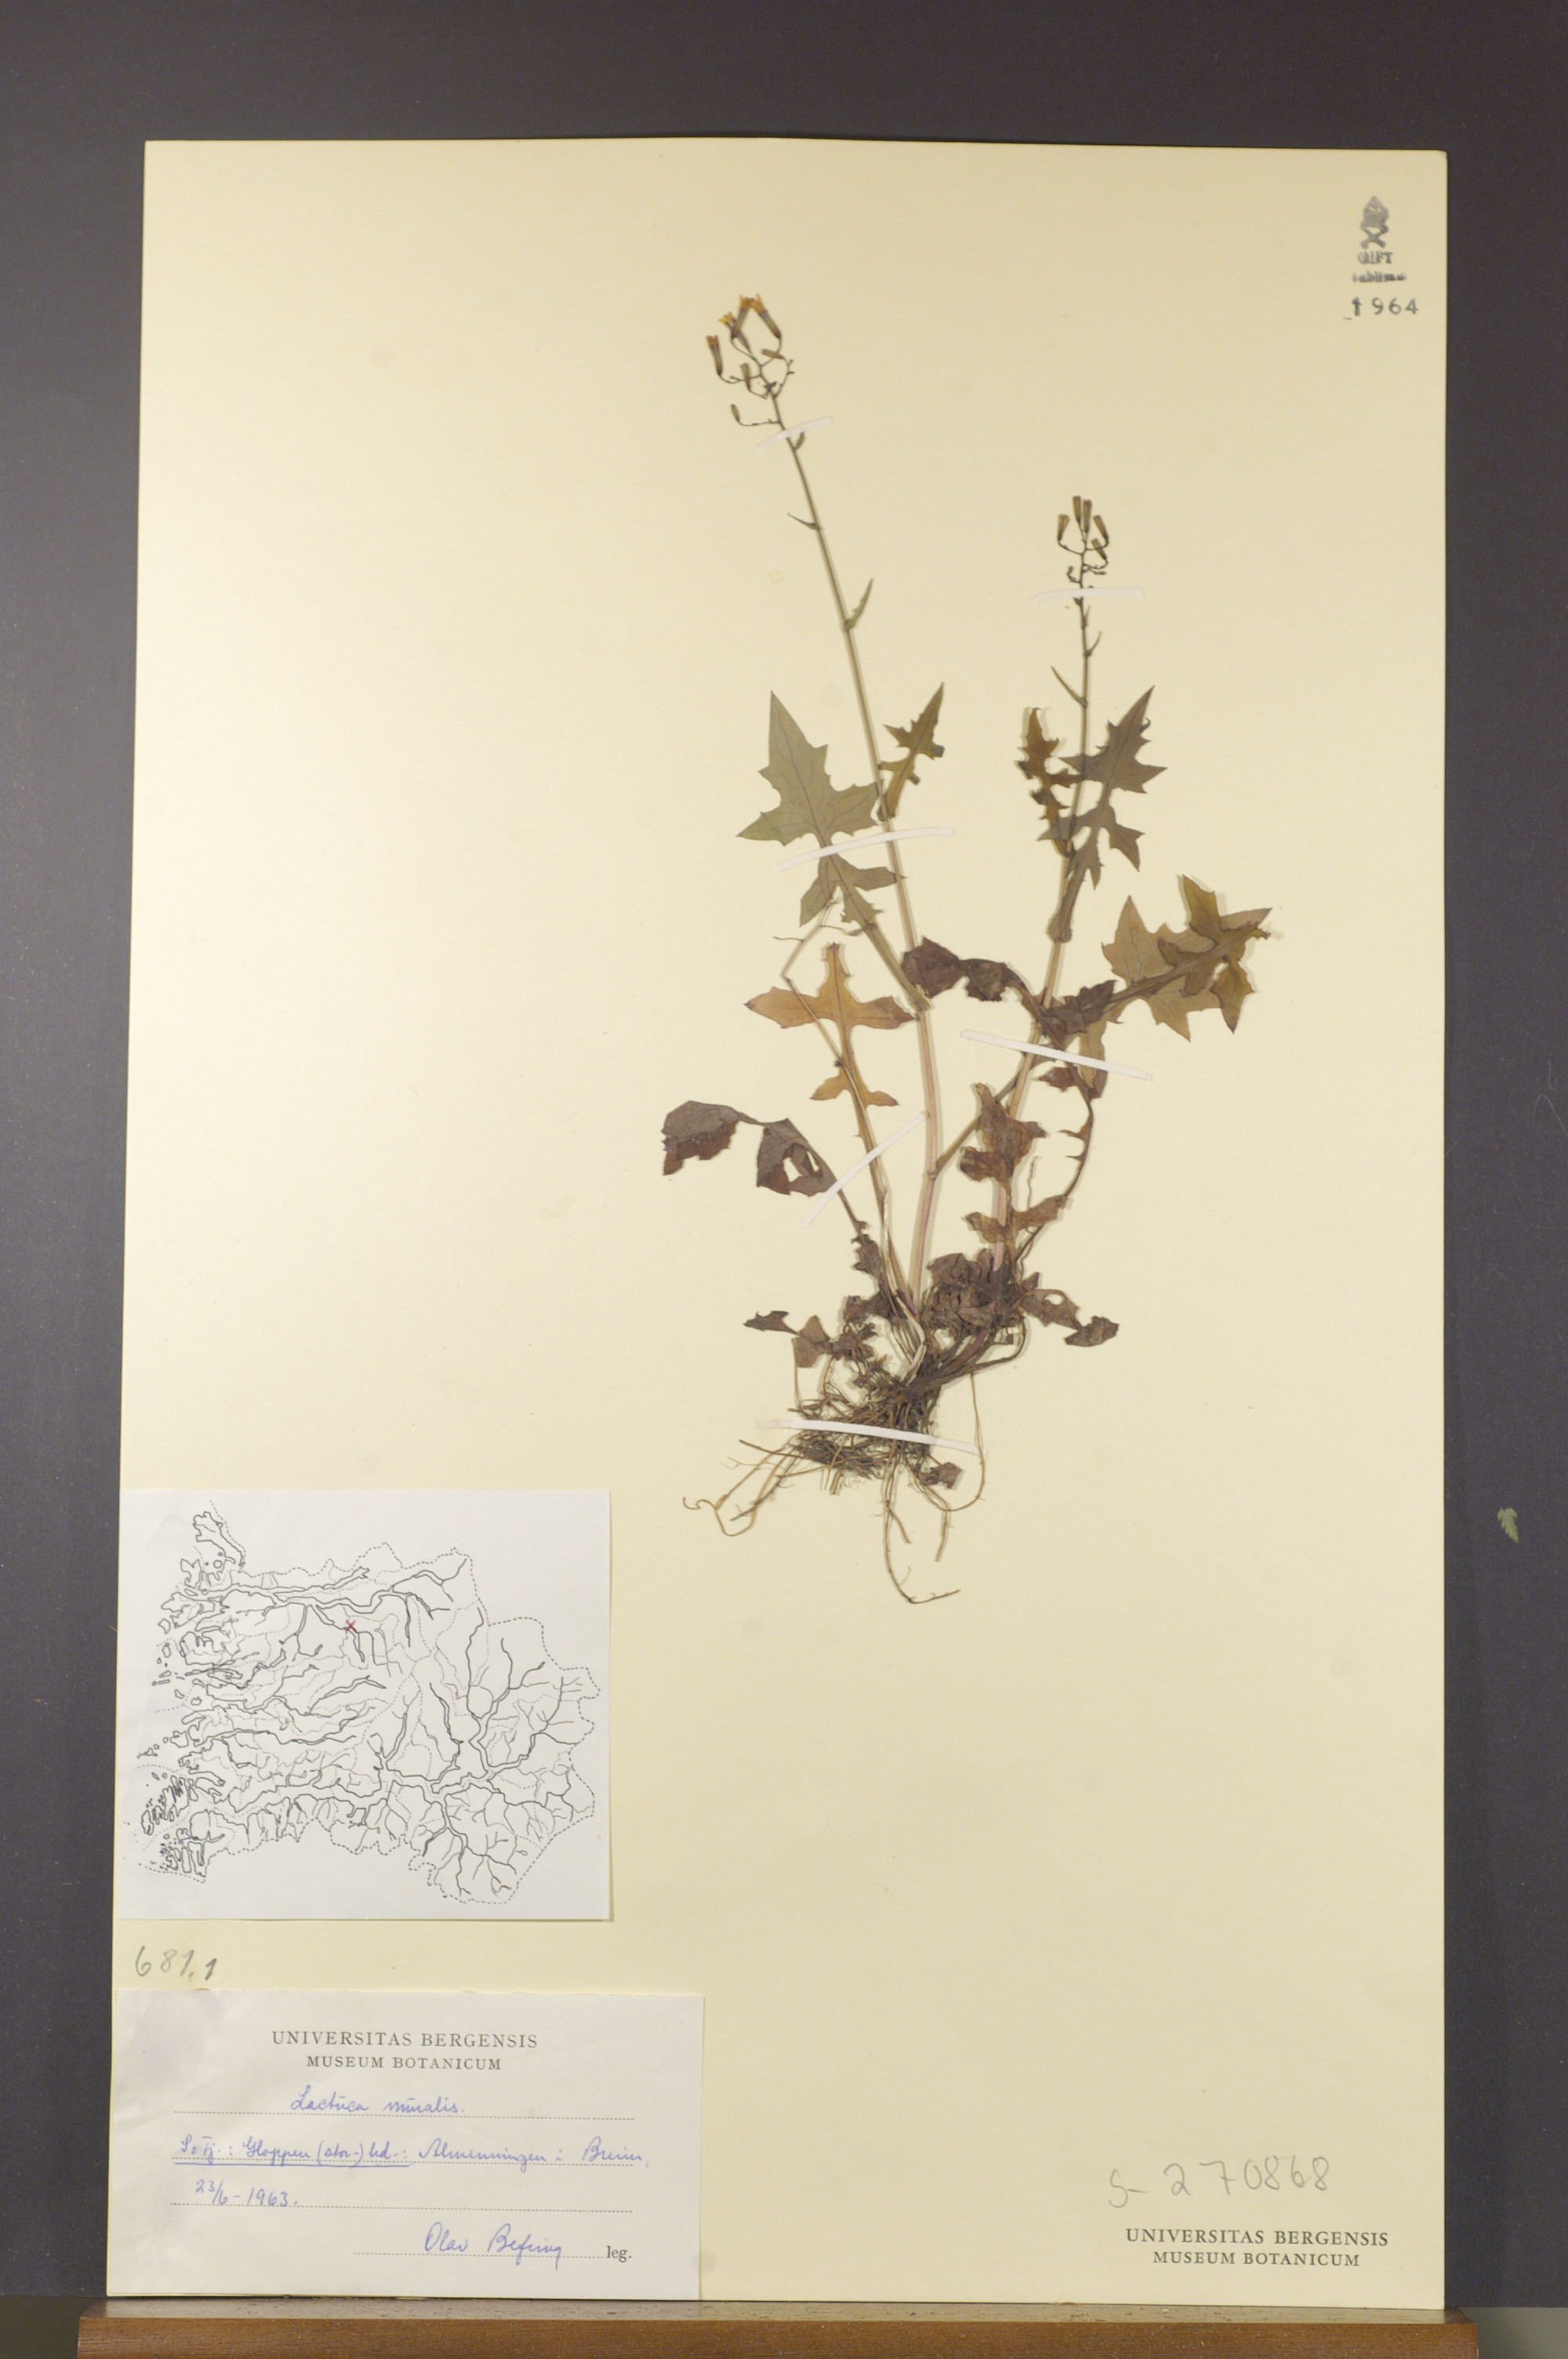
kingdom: Plantae
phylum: Tracheophyta
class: Magnoliopsida
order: Asterales
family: Asteraceae
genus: Mycelis
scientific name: Mycelis muralis
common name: Wall lettuce
